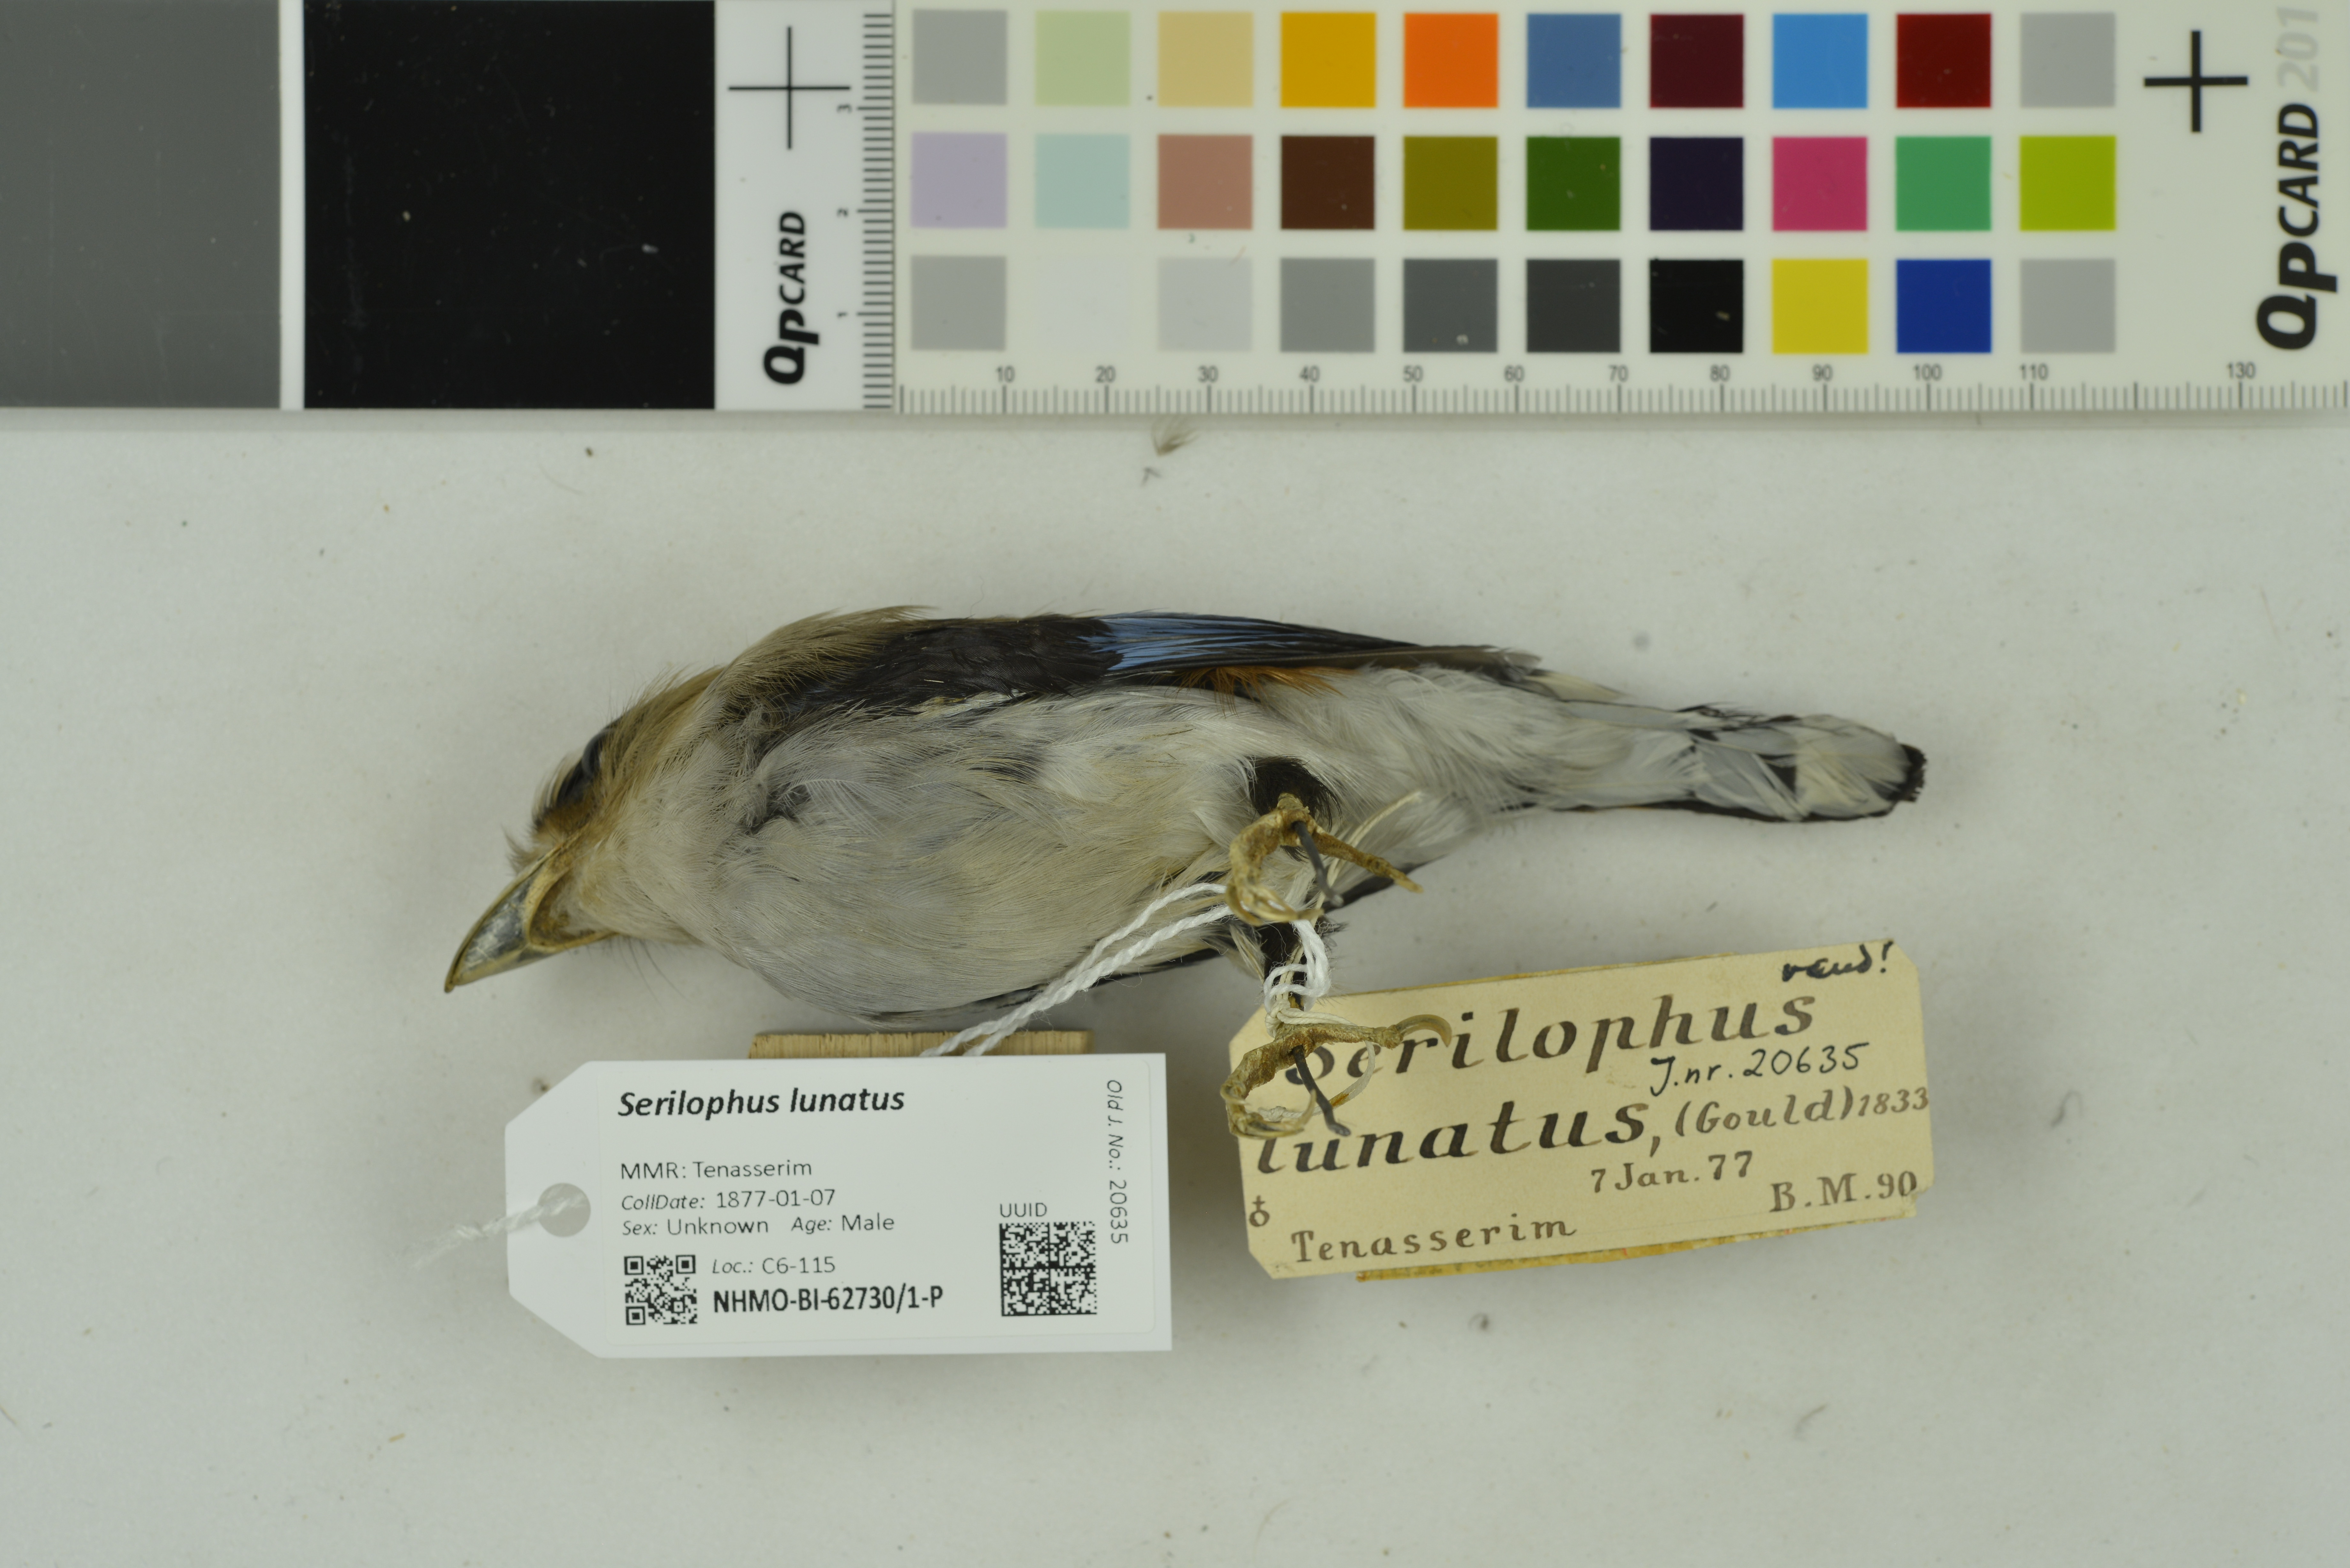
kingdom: Animalia
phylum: Chordata
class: Aves
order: Passeriformes
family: Eurylaimidae
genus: Serilophus
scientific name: Serilophus lunatus
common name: Silver-breasted broadbill
